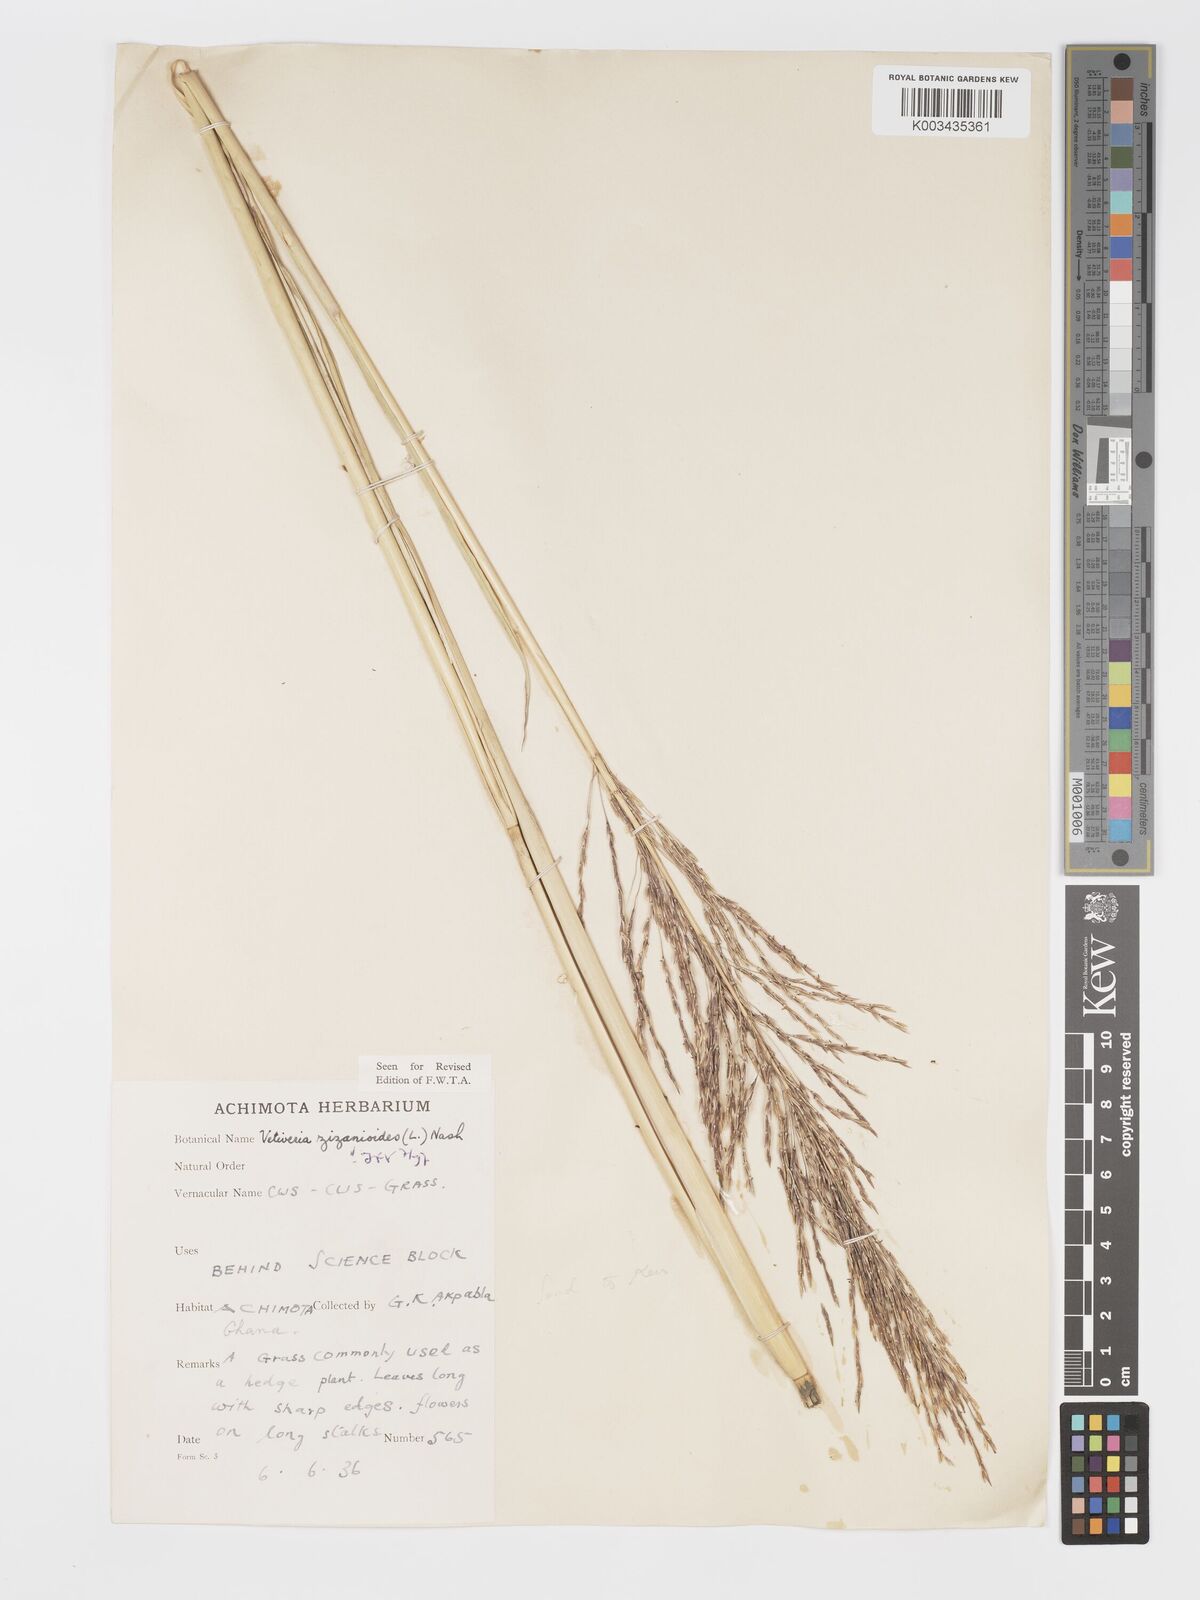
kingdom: Plantae
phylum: Tracheophyta
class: Liliopsida
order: Poales
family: Poaceae
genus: Chrysopogon
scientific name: Chrysopogon zizanioides
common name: False beardgrass
